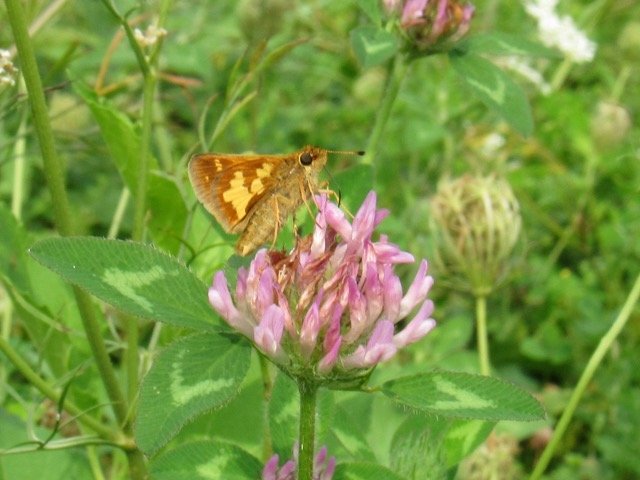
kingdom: Animalia
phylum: Arthropoda
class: Insecta
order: Lepidoptera
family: Hesperiidae
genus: Polites
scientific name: Polites coras
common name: Peck's Skipper
